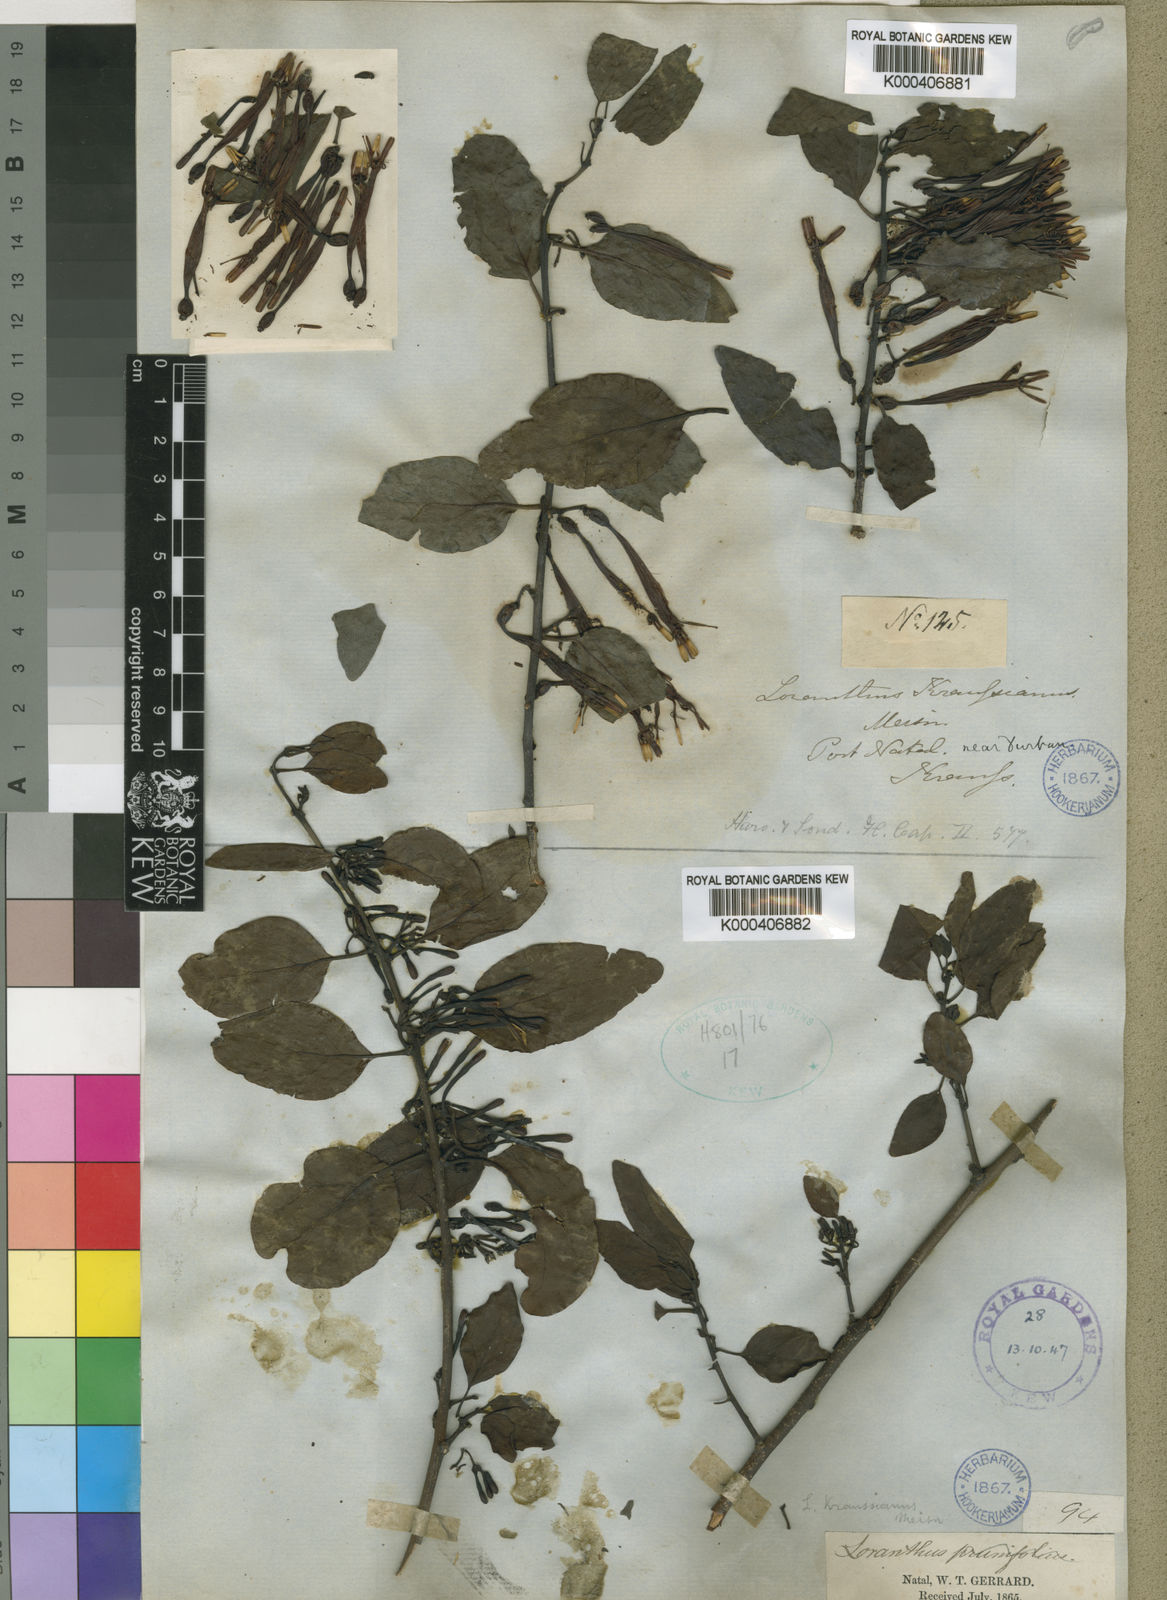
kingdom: Plantae
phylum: Tracheophyta
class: Magnoliopsida
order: Santalales
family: Loranthaceae
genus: Agelanthus
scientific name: Agelanthus kraussianus
